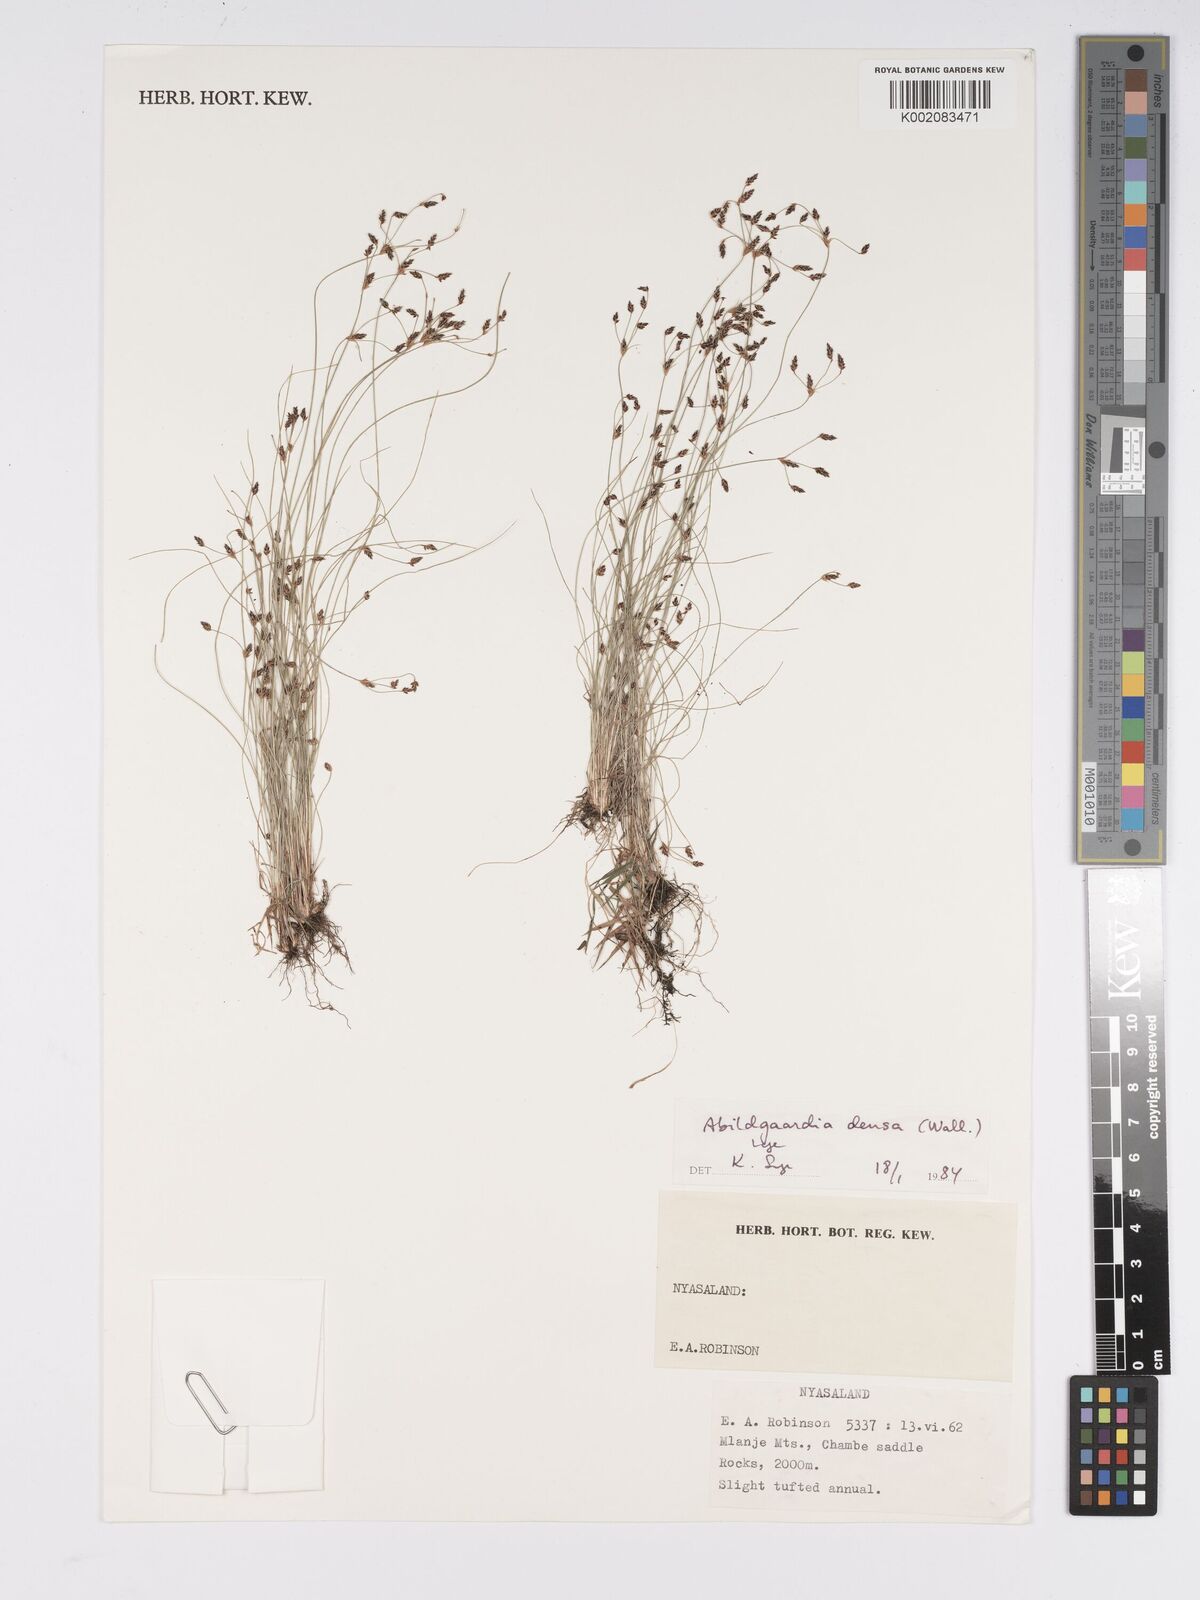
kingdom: Plantae
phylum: Tracheophyta
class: Liliopsida
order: Poales
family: Cyperaceae
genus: Bulbostylis
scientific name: Bulbostylis densa
